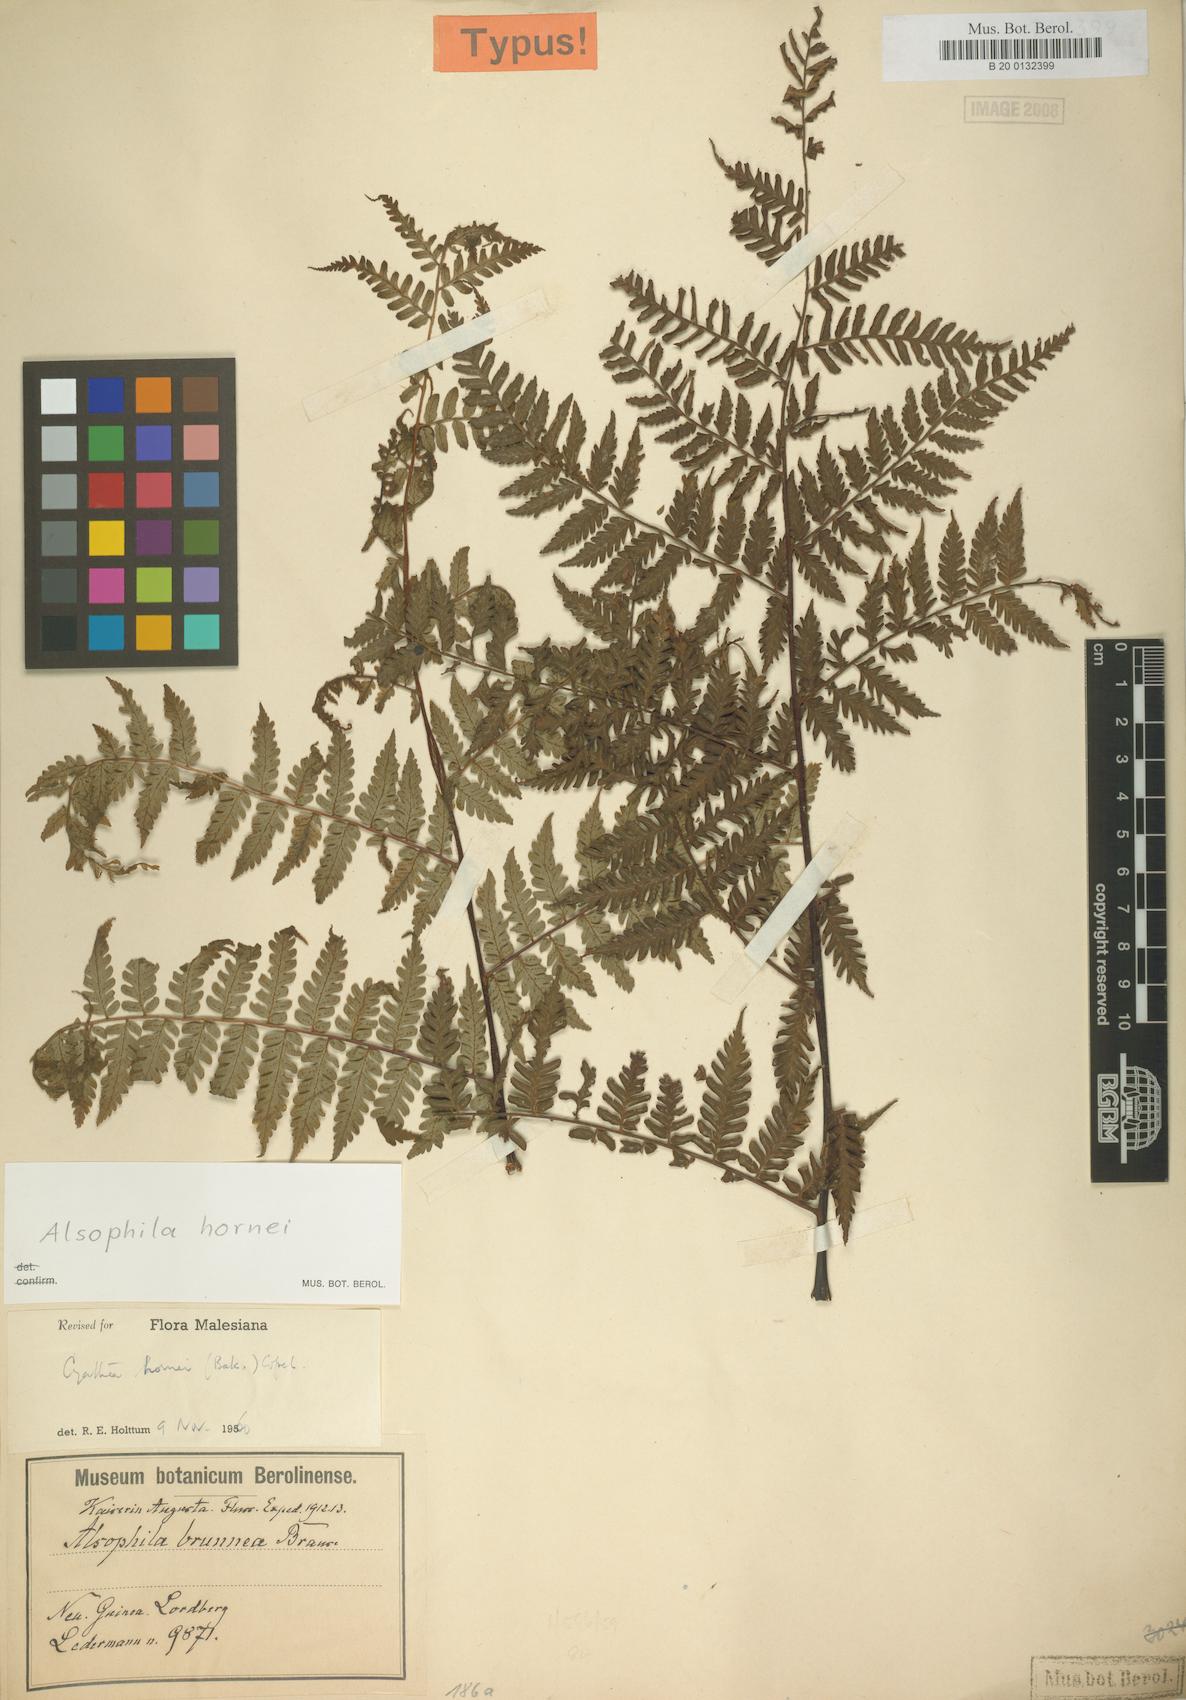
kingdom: Plantae
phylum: Tracheophyta
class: Polypodiopsida
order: Cyatheales
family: Cyatheaceae
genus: Gymnosphaera
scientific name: Gymnosphaera hornei
